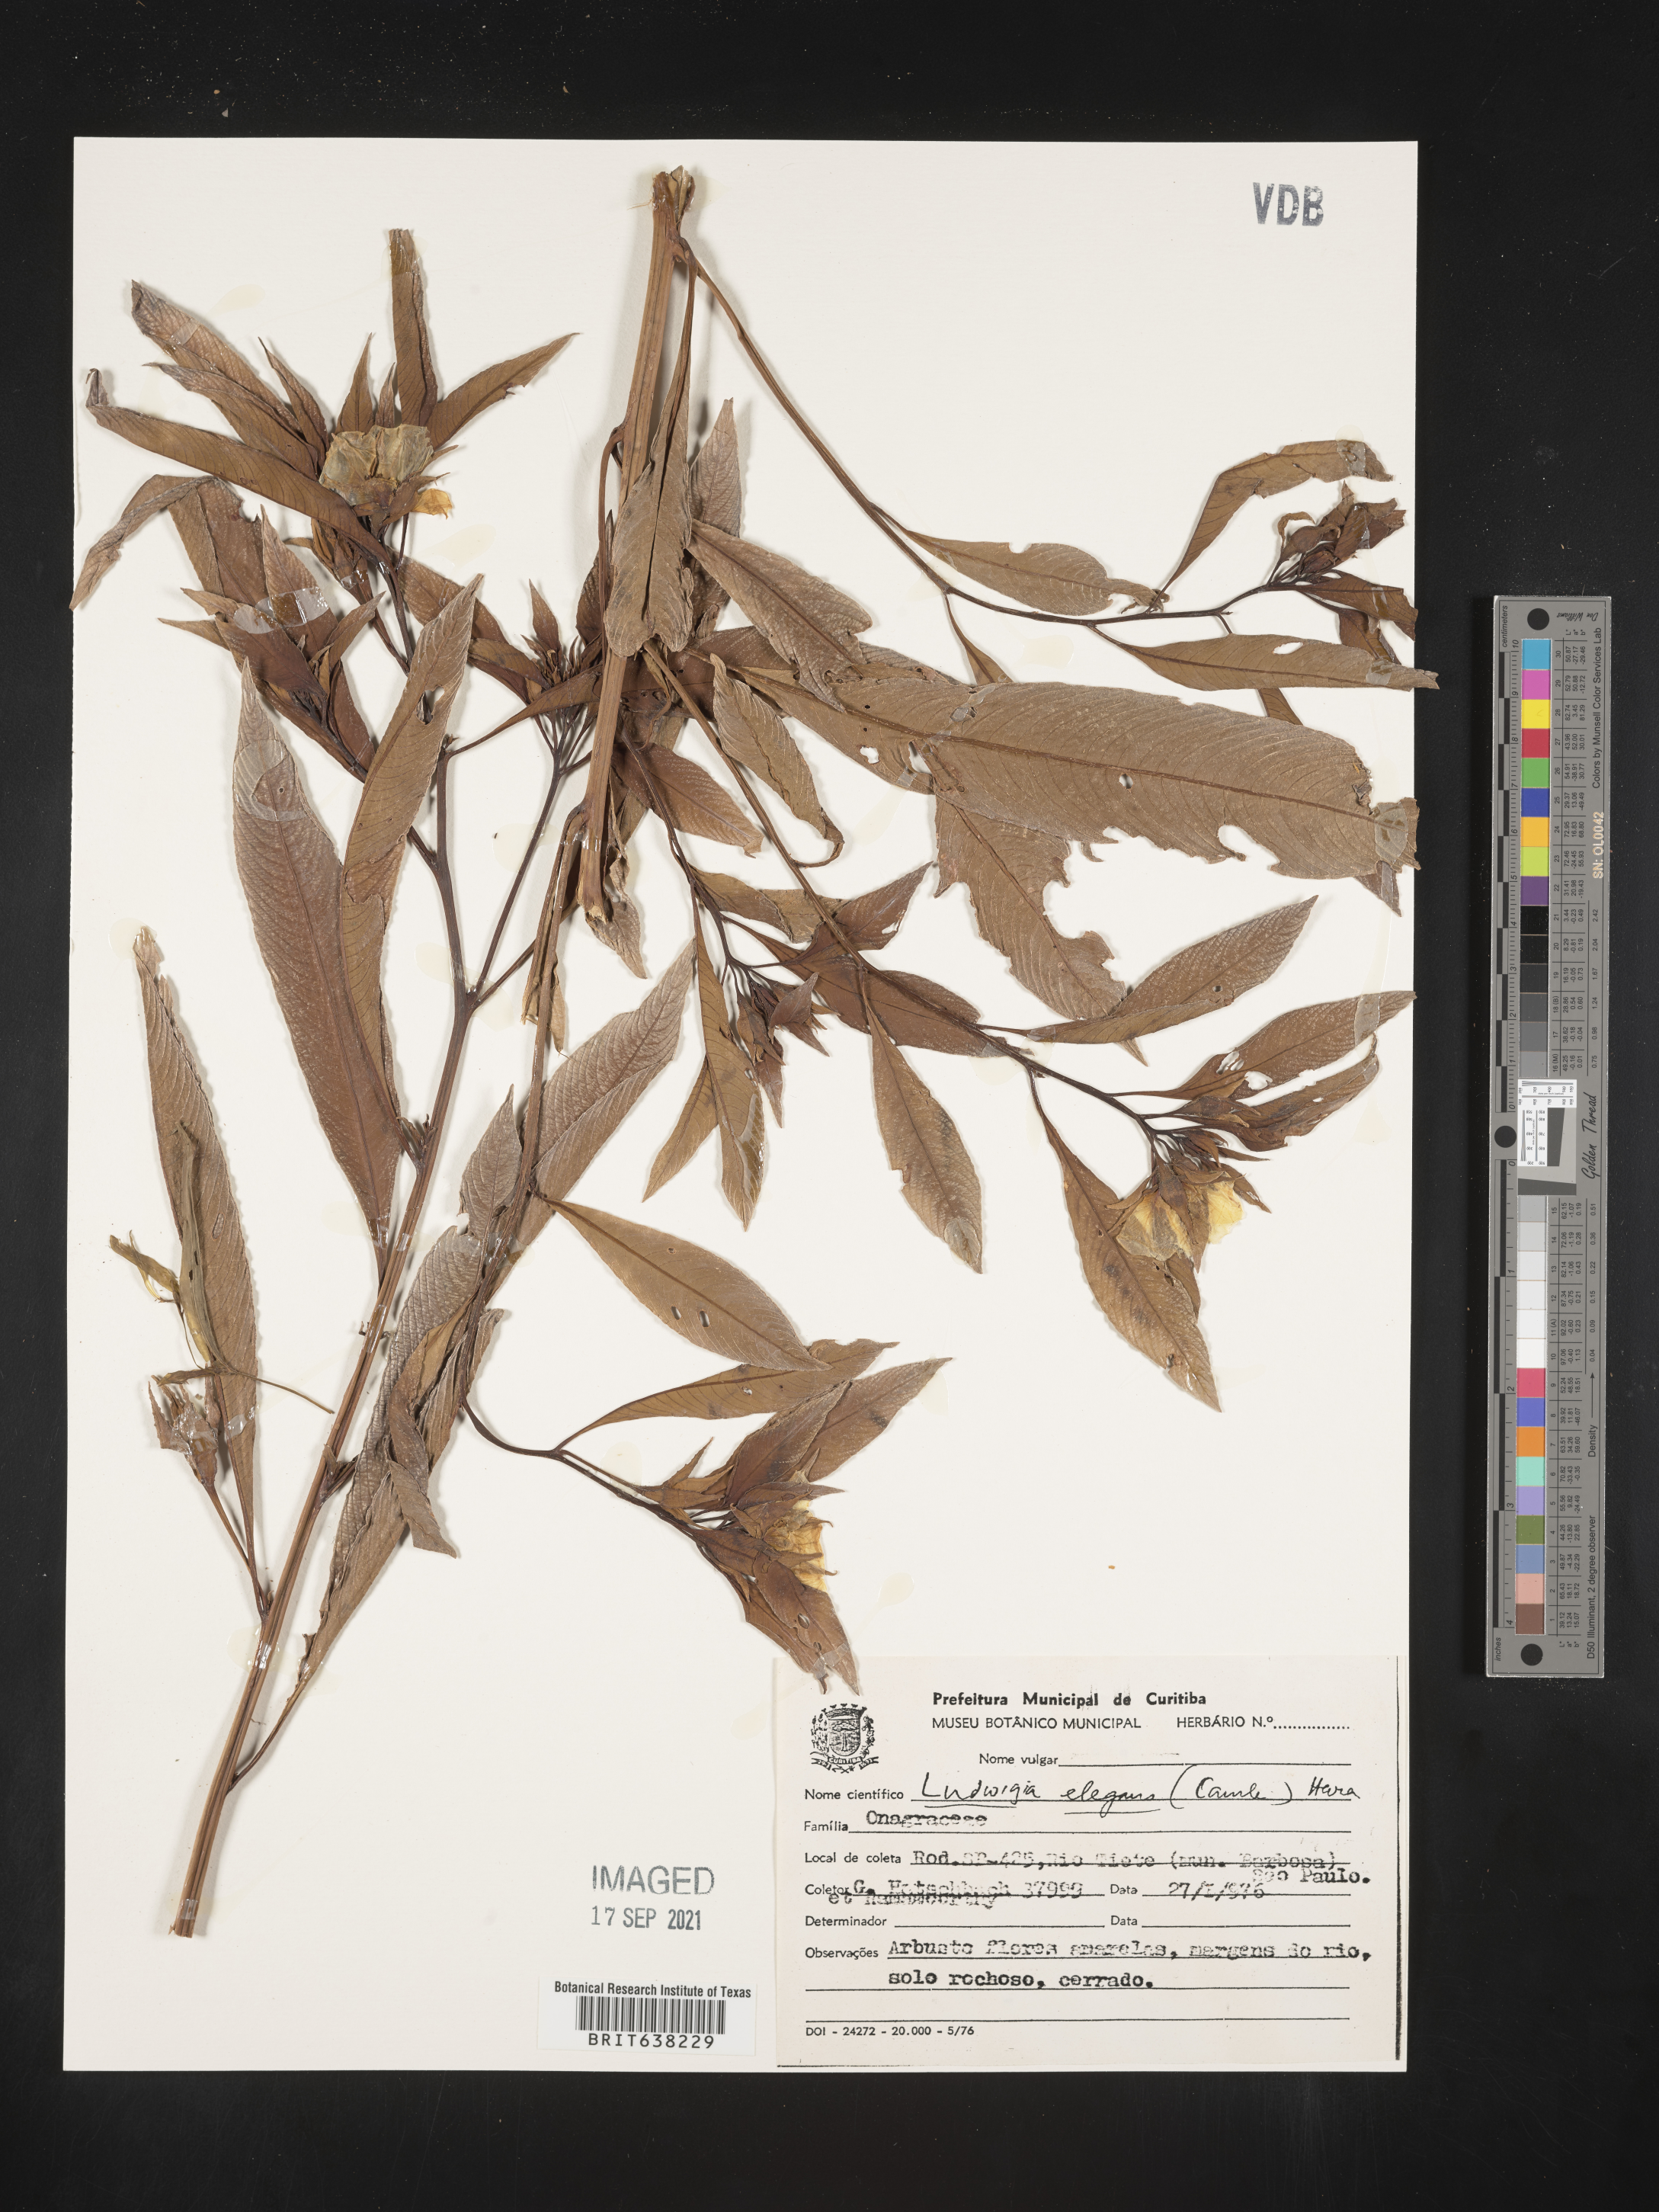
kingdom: Plantae
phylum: Tracheophyta
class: Magnoliopsida
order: Myrtales
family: Onagraceae
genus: Ludwigia
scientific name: Ludwigia
